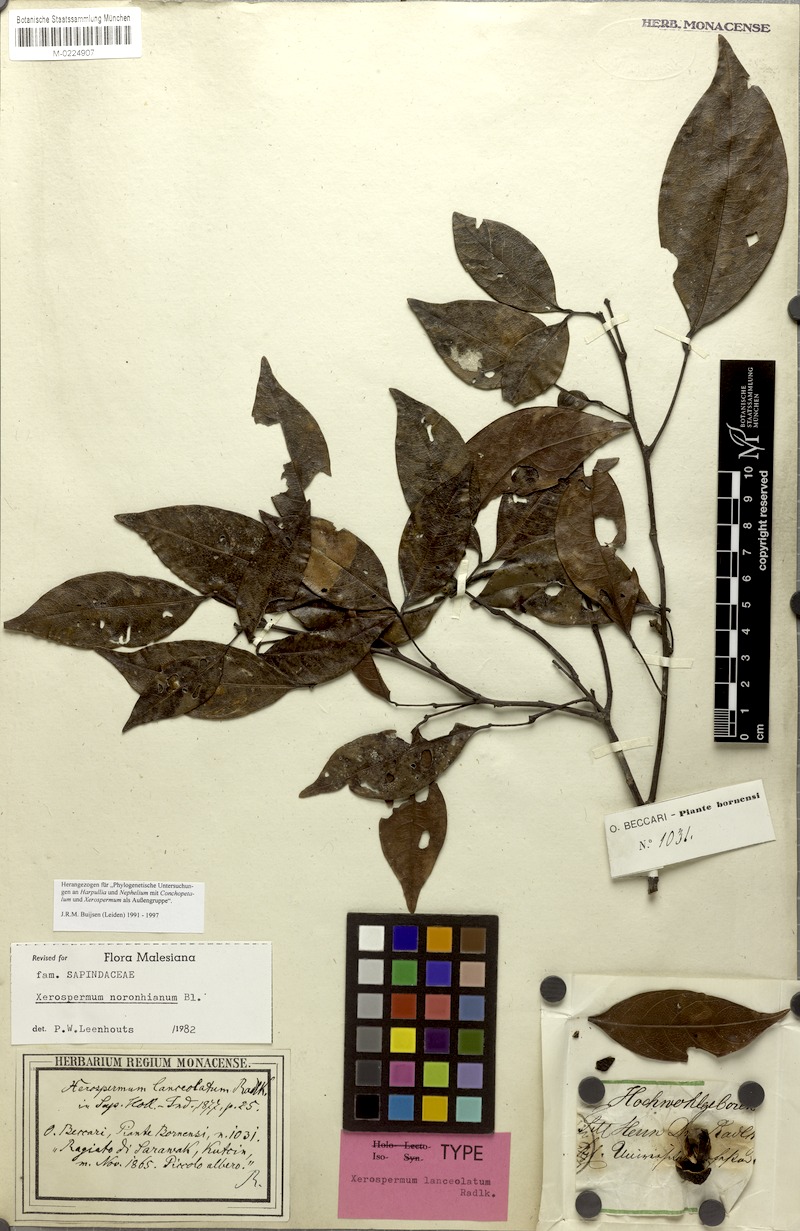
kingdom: Plantae
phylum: Tracheophyta
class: Magnoliopsida
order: Sapindales
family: Sapindaceae
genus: Xerospermum
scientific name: Xerospermum noronhianum
